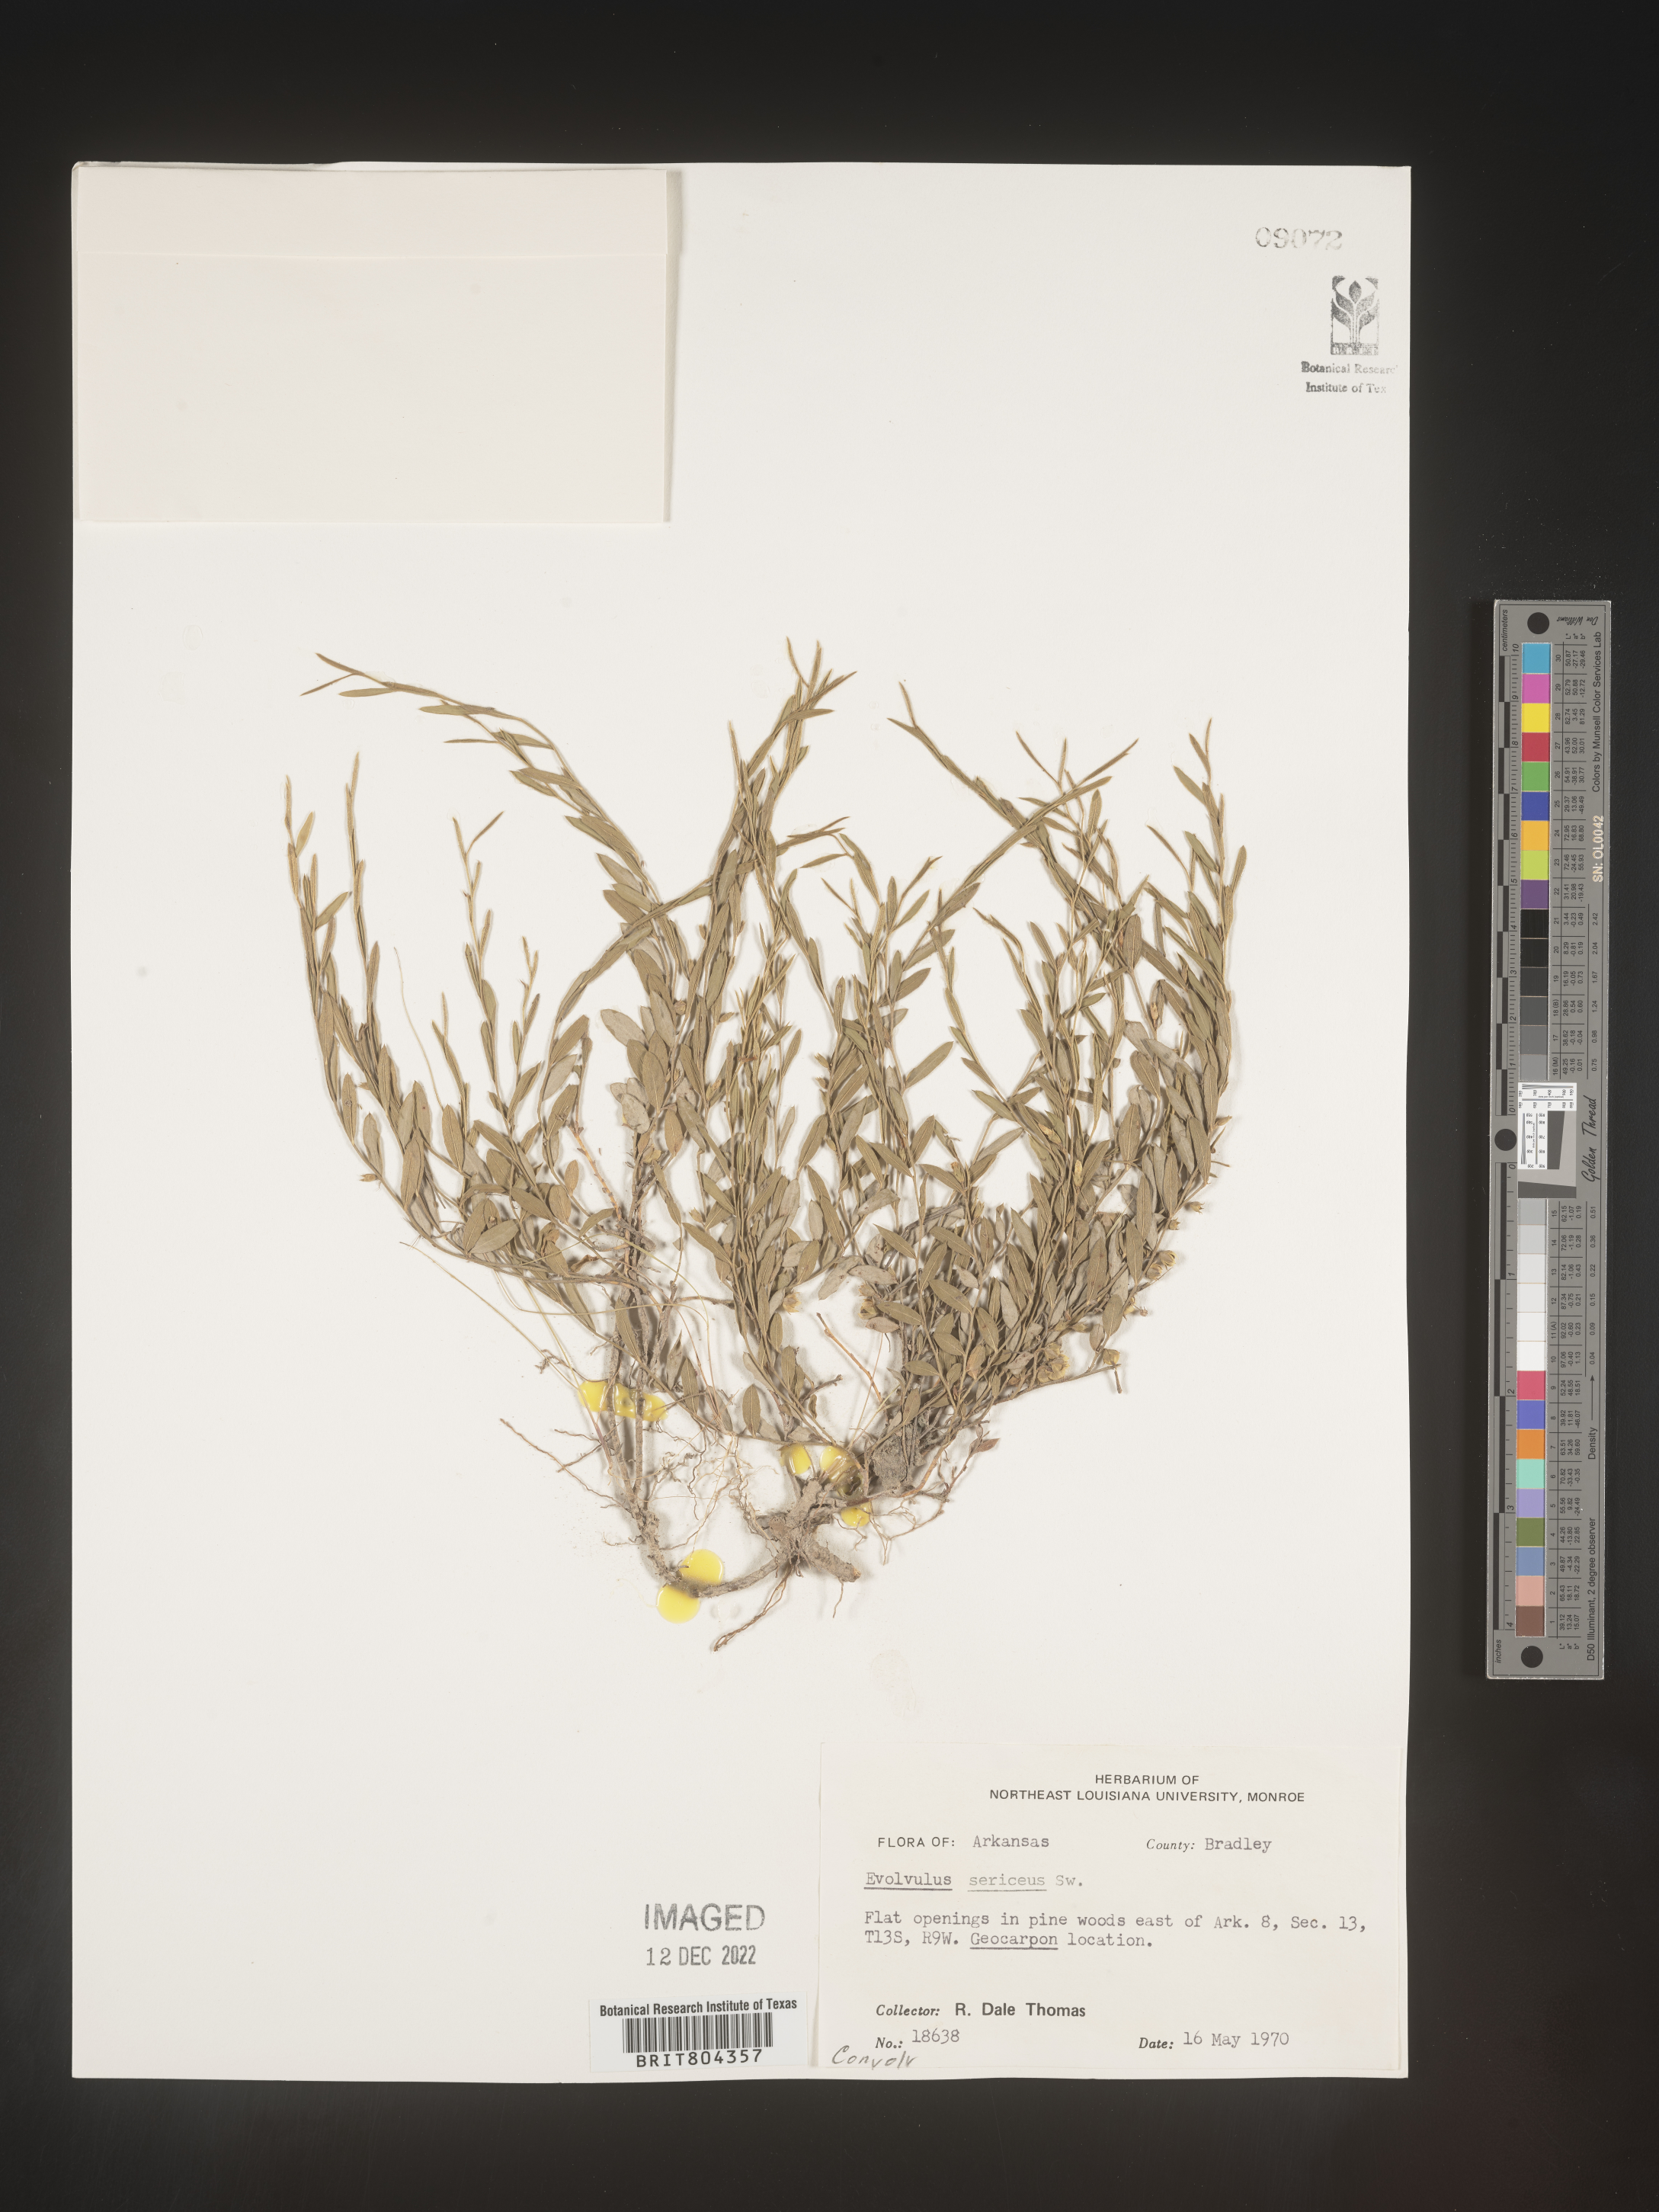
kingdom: Plantae
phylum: Tracheophyta
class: Magnoliopsida
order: Solanales
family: Convolvulaceae
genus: Evolvulus
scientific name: Evolvulus sericeus
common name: Blue dots
